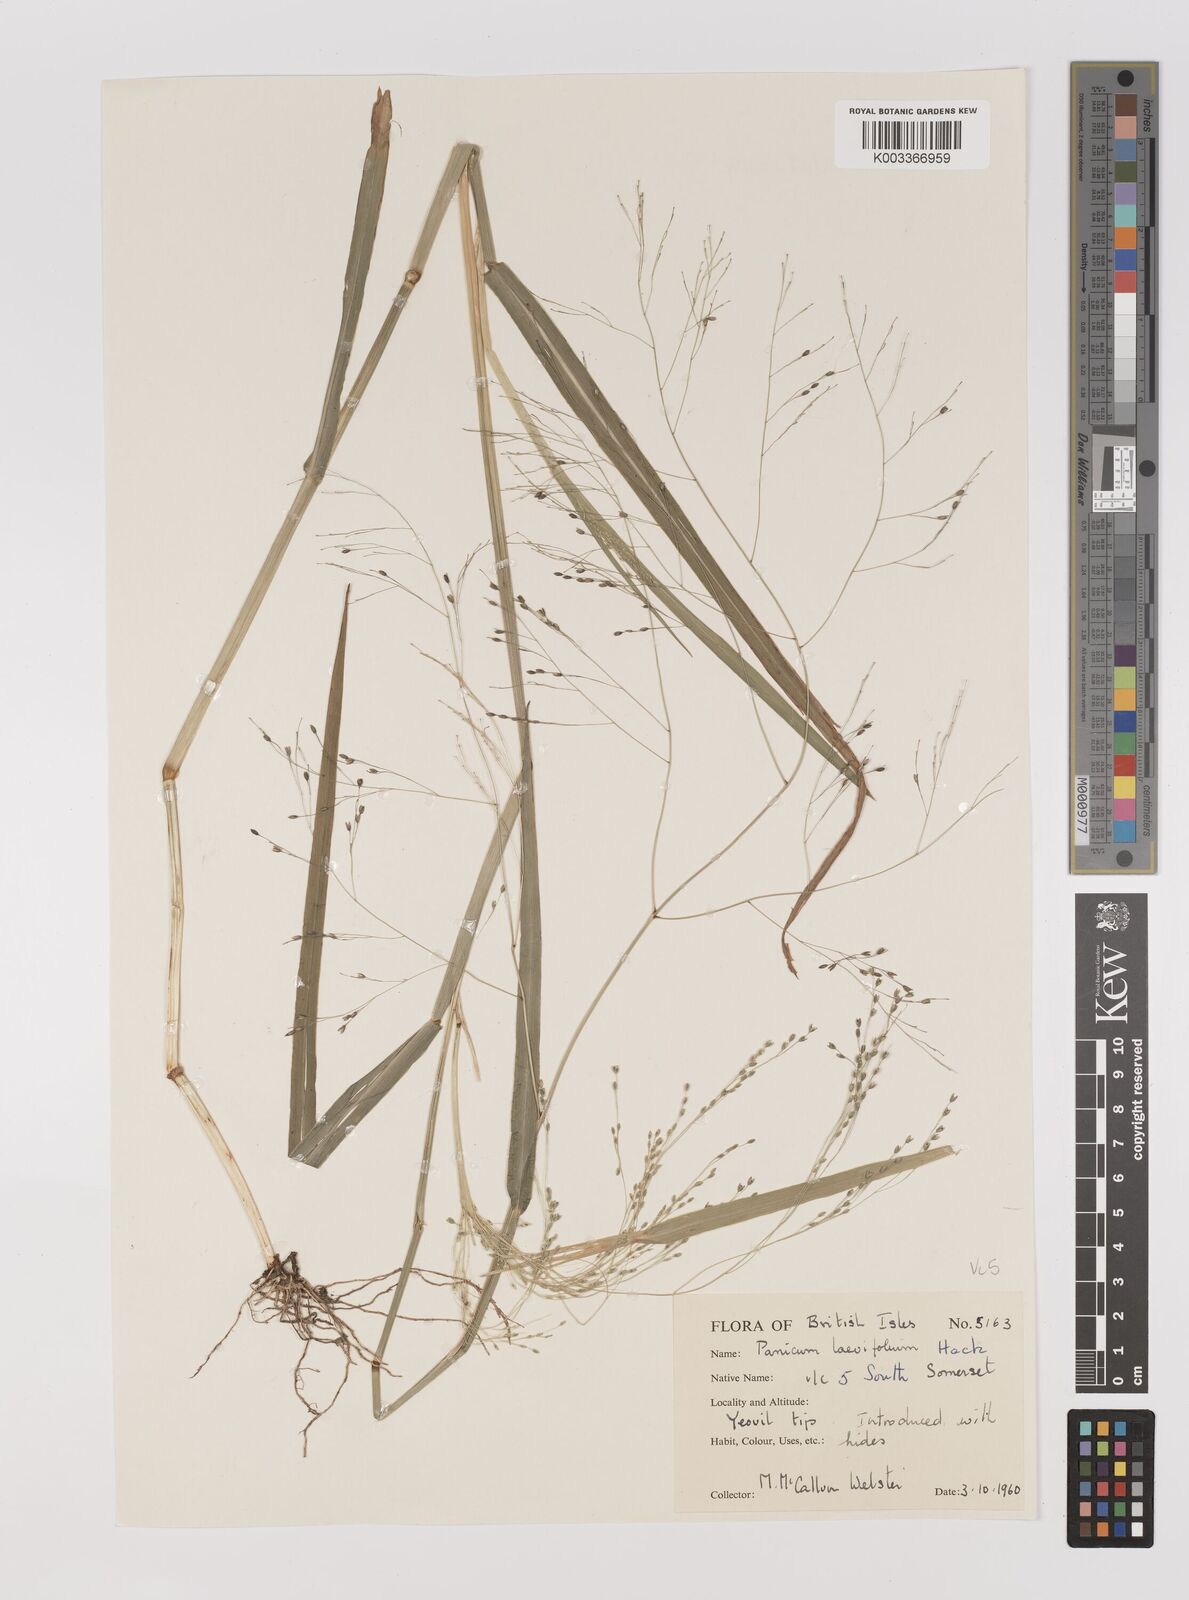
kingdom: Plantae
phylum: Tracheophyta
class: Liliopsida
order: Poales
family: Poaceae
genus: Panicum
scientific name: Panicum schinzii
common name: Sweet grass
